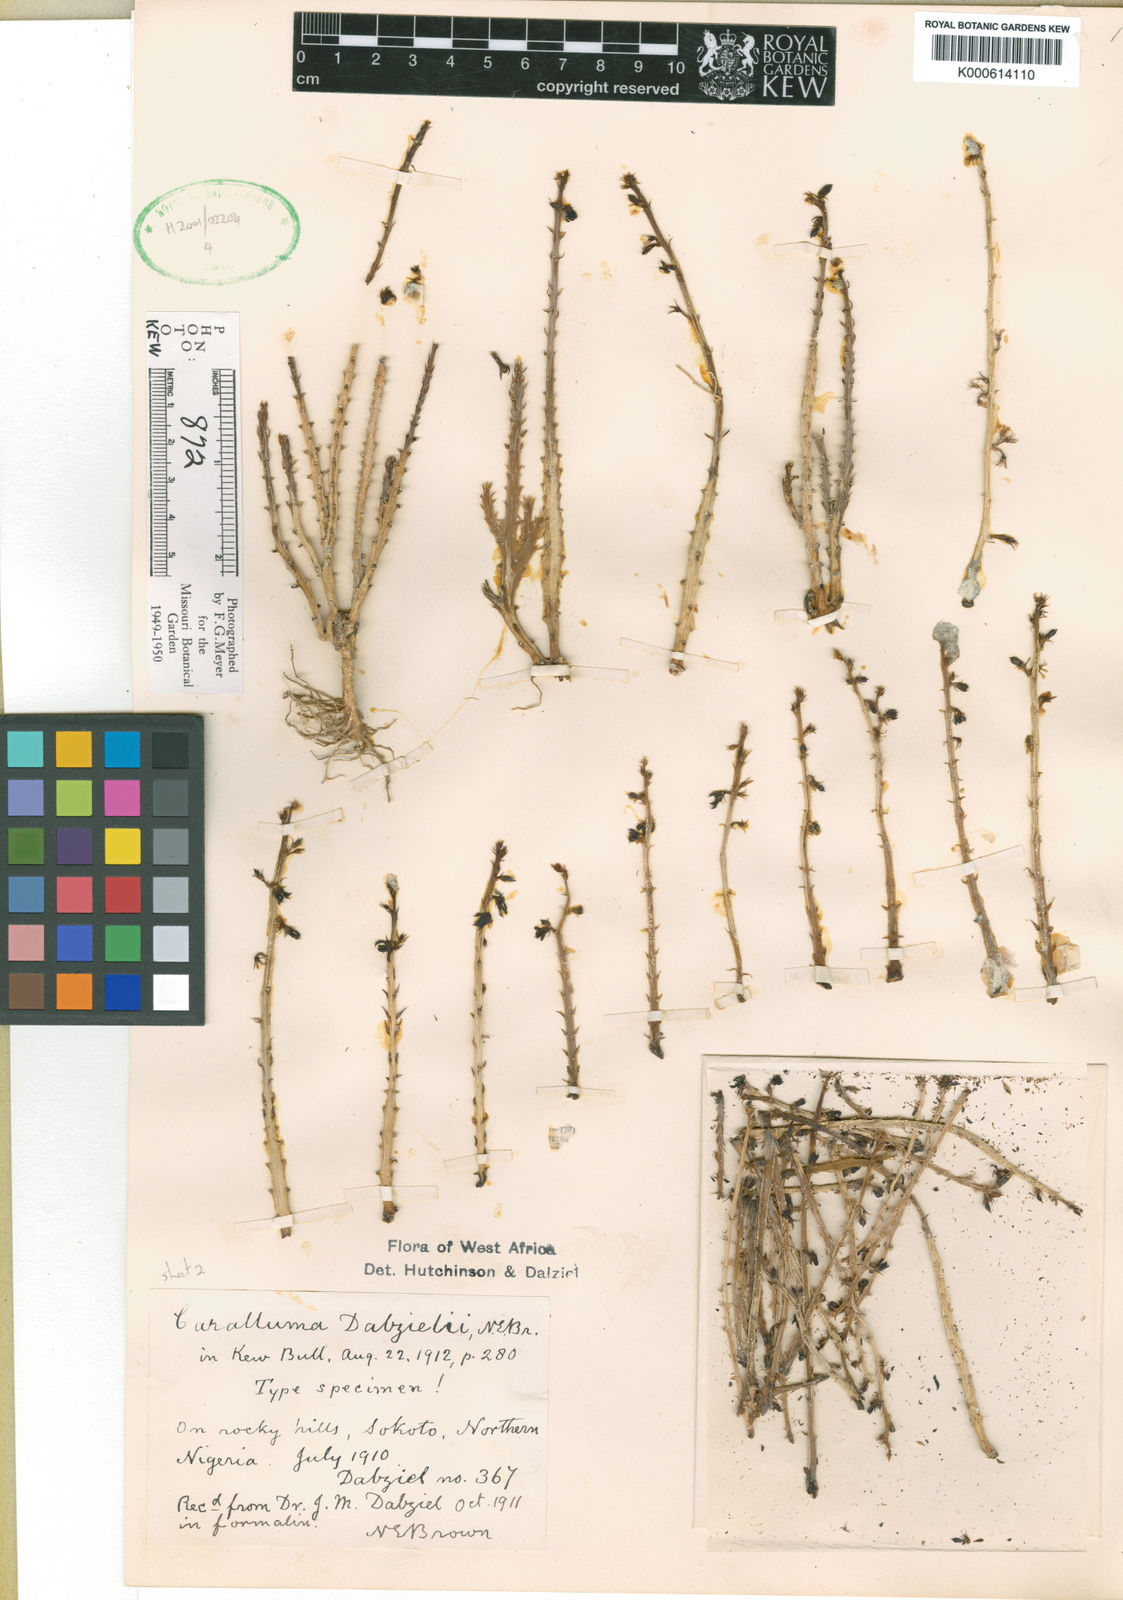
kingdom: Plantae
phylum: Tracheophyta
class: Magnoliopsida
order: Gentianales
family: Apocynaceae
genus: Ceropegia
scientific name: Ceropegia sudanica
